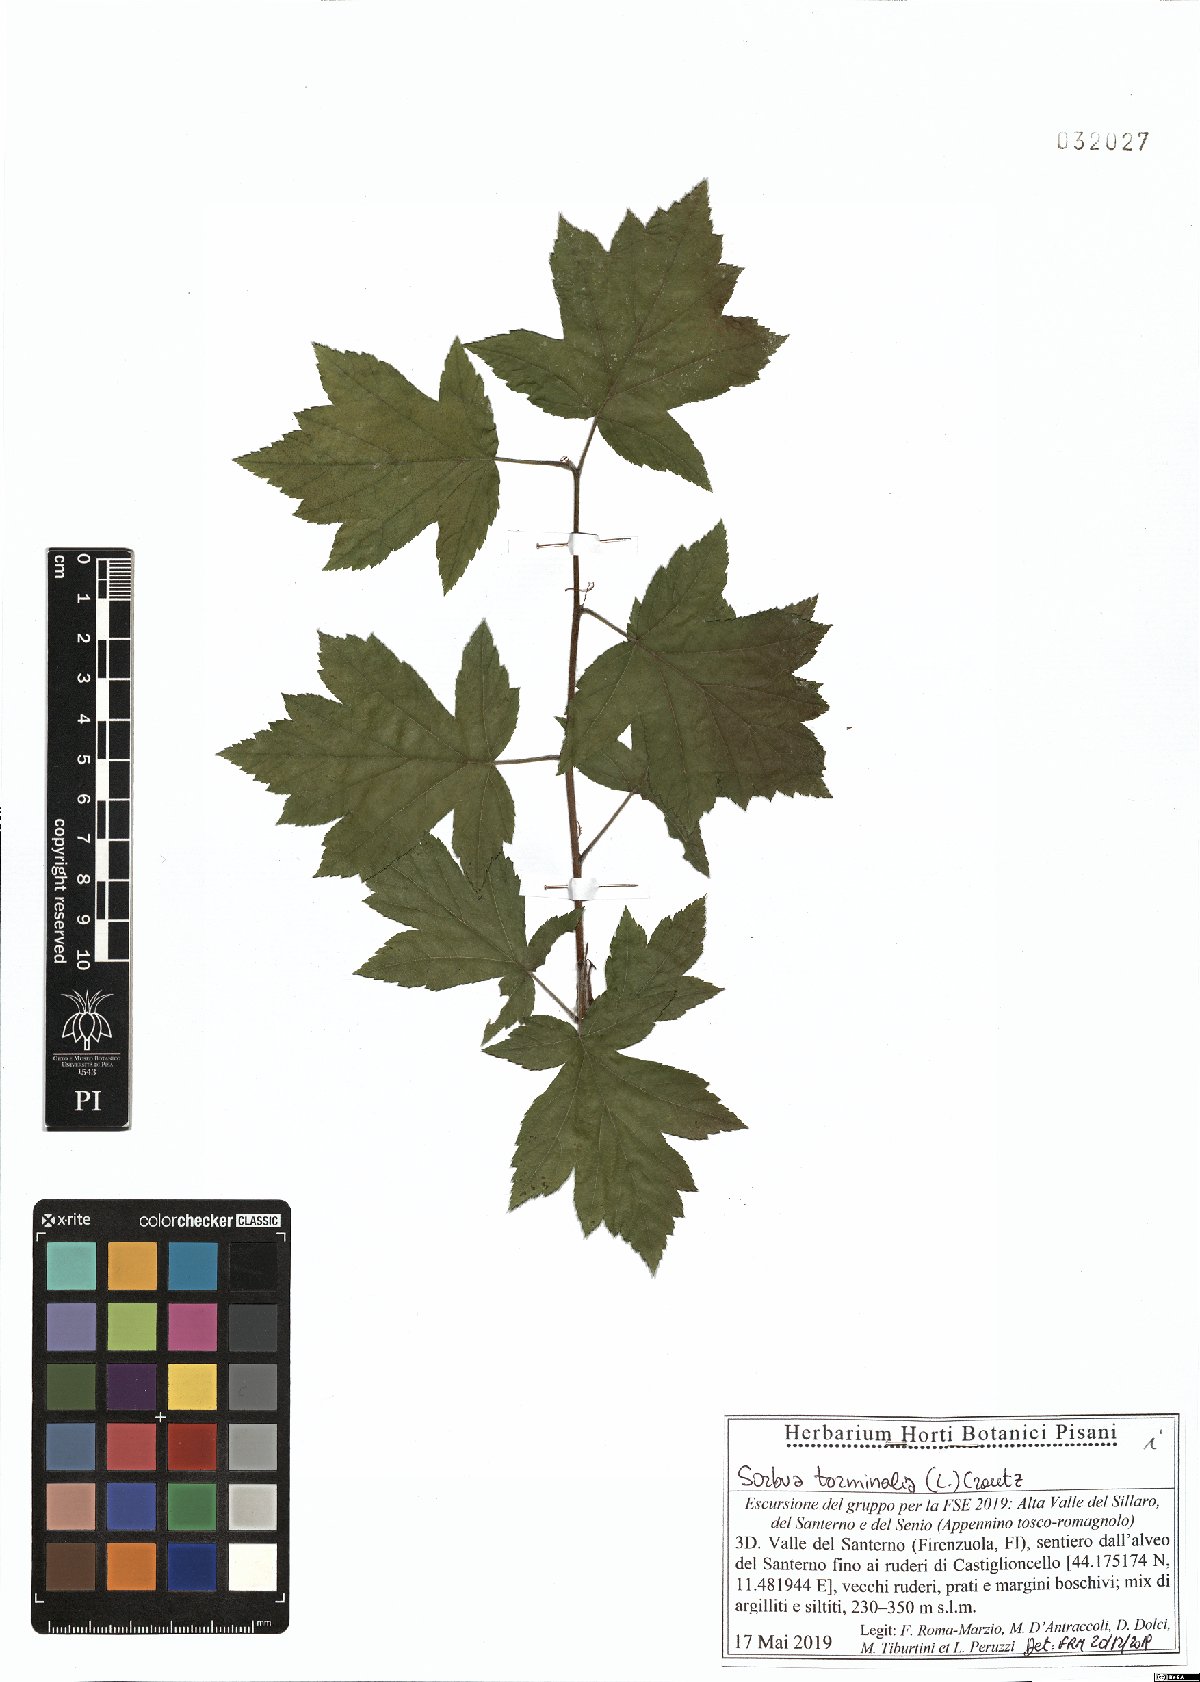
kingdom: Plantae
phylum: Tracheophyta
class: Magnoliopsida
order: Rosales
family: Rosaceae
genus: Torminalis
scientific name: Torminalis glaberrima
